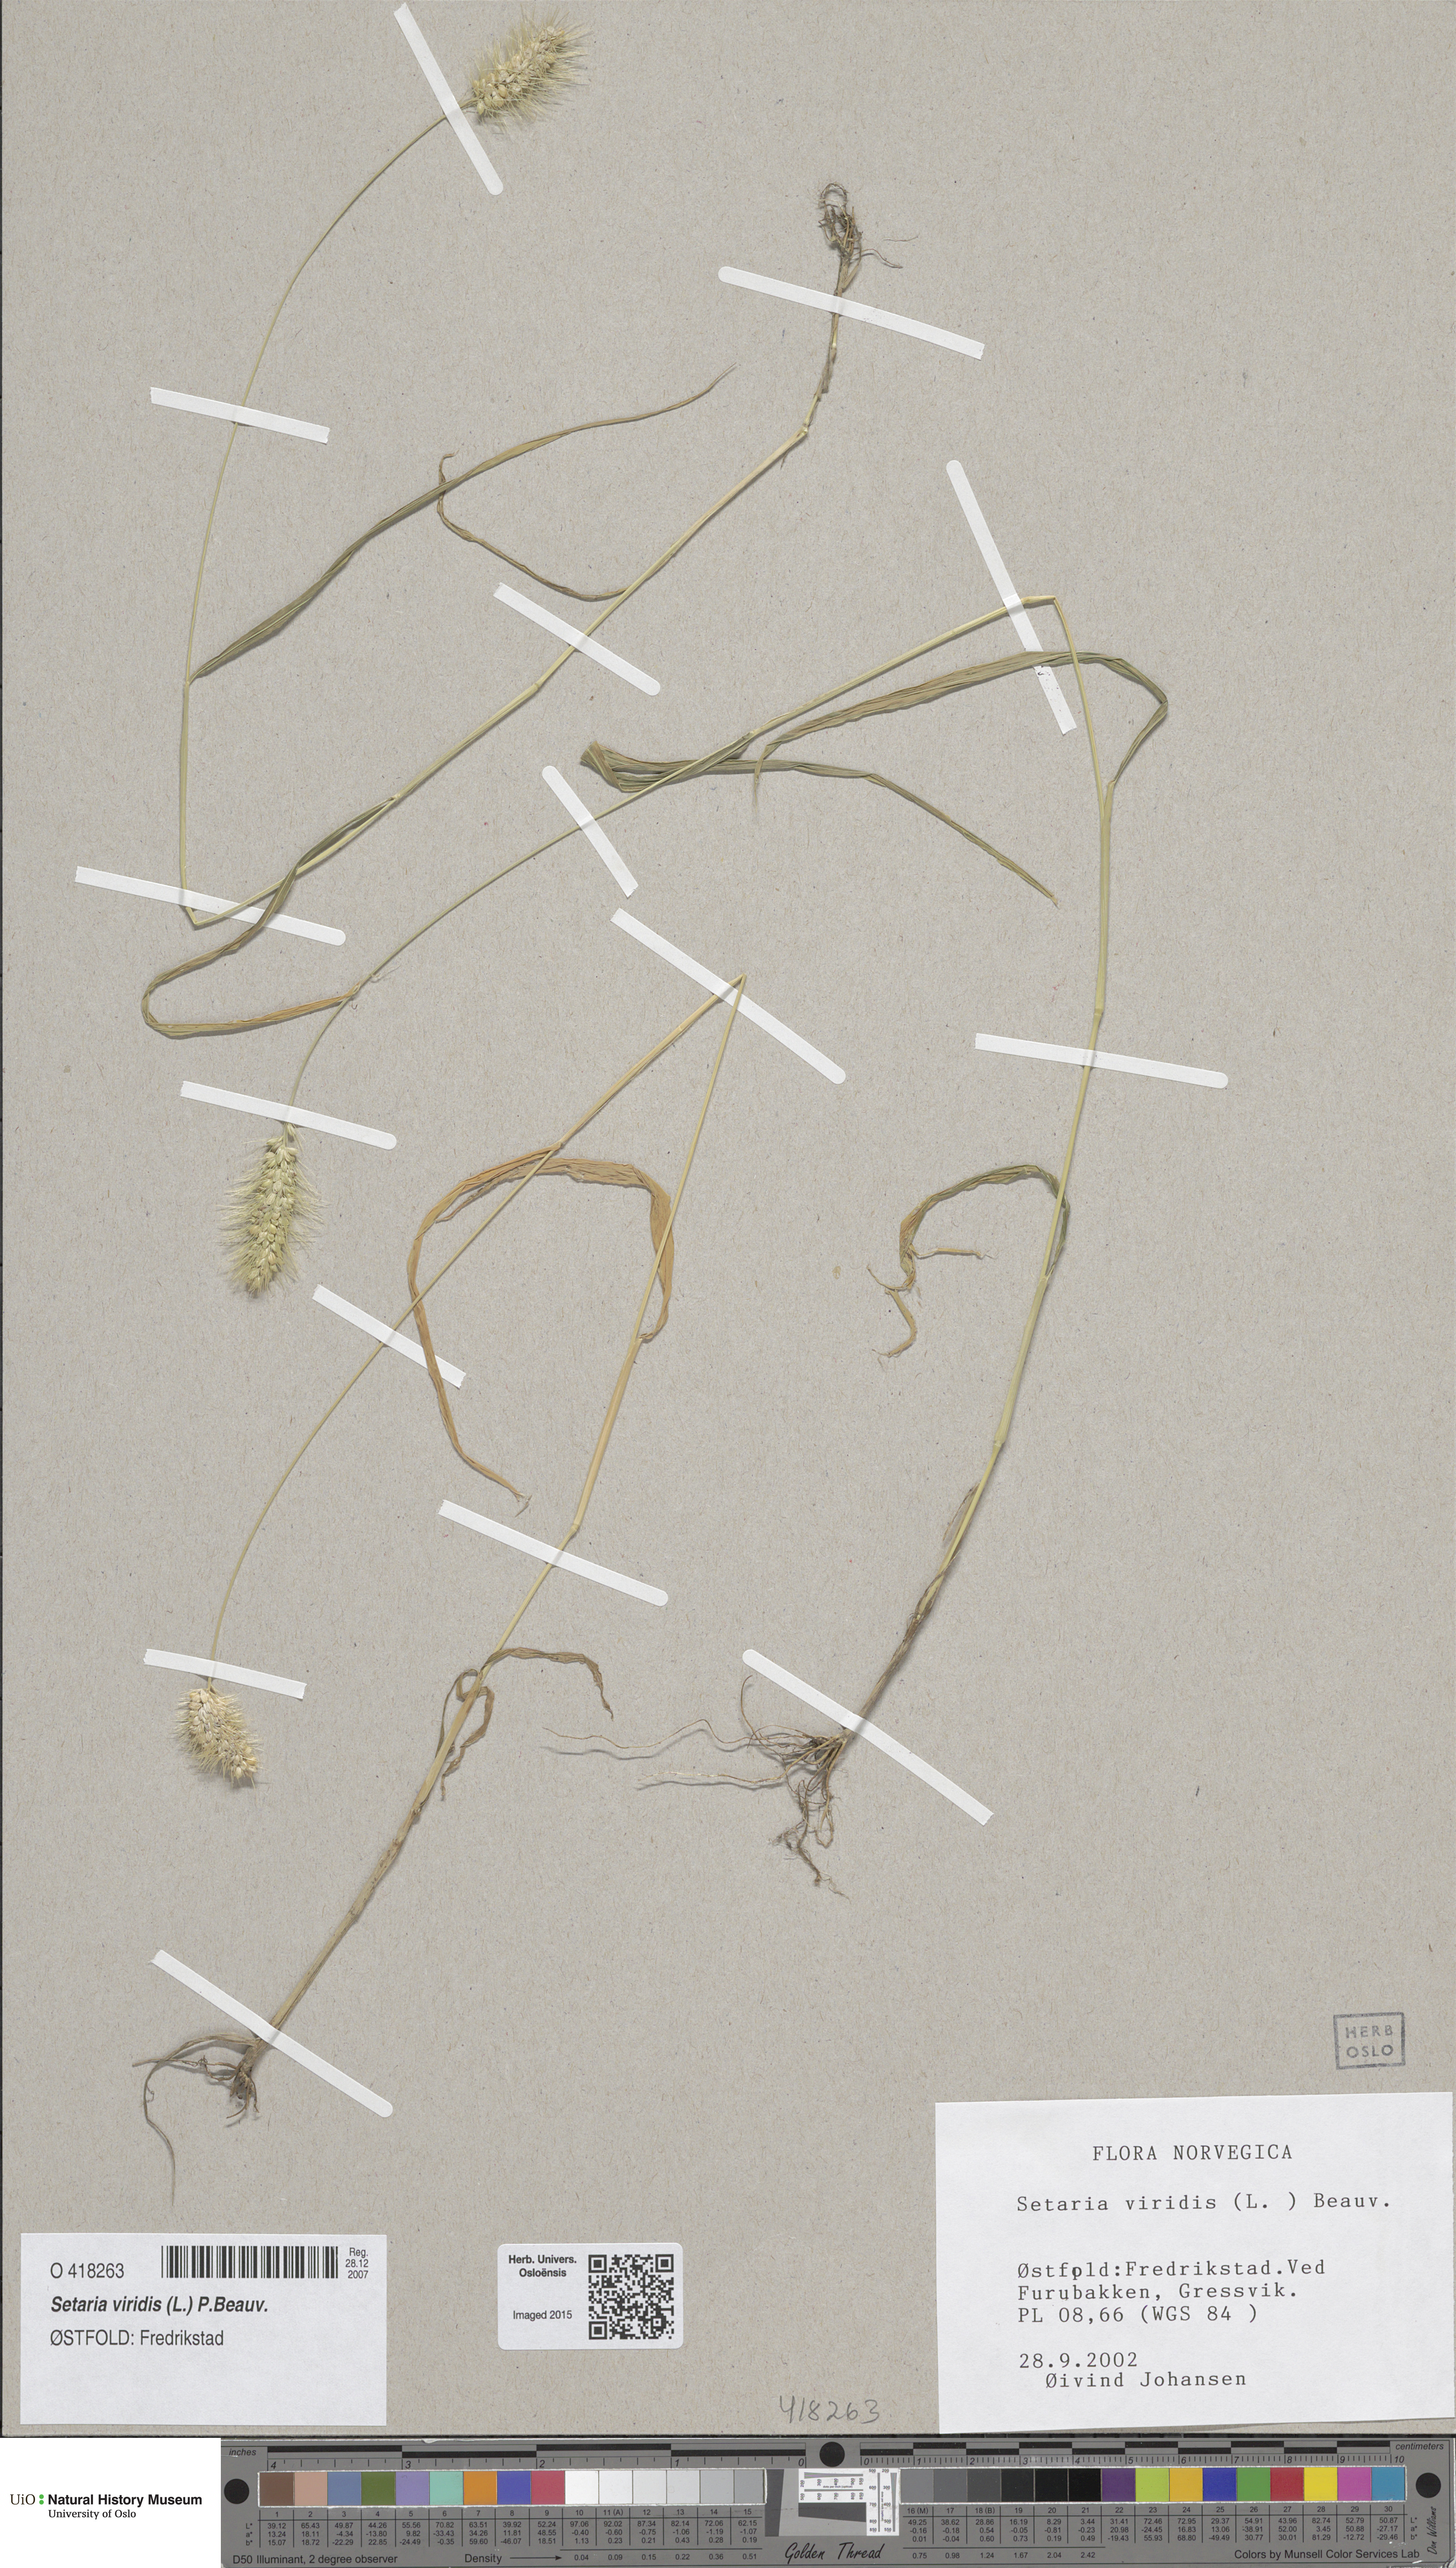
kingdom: Plantae
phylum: Tracheophyta
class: Liliopsida
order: Poales
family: Poaceae
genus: Setaria
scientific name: Setaria viridis
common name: Green bristlegrass
